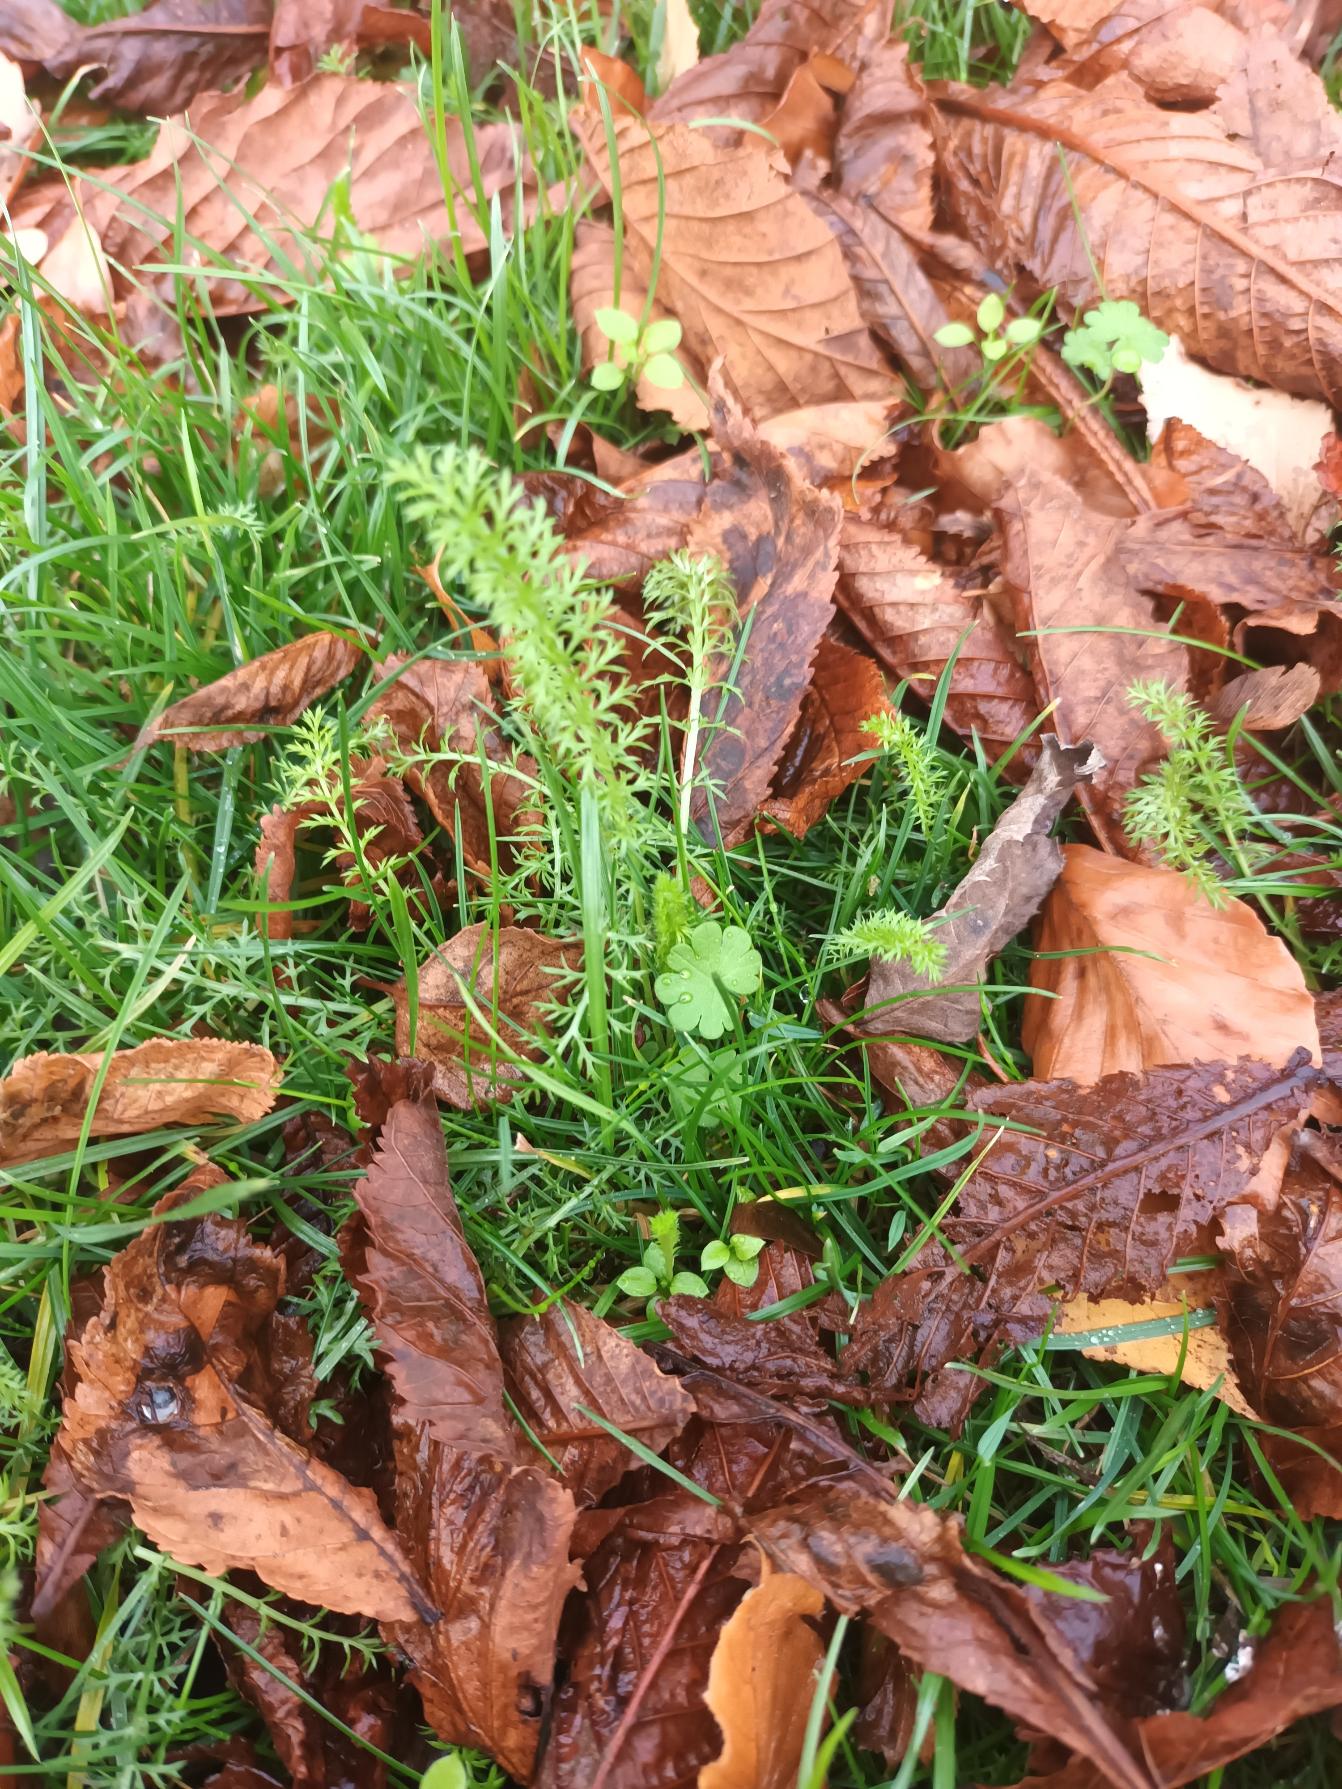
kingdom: Plantae
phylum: Tracheophyta
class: Magnoliopsida
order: Asterales
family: Asteraceae
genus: Achillea
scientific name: Achillea millefolium
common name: Almindelig røllike
